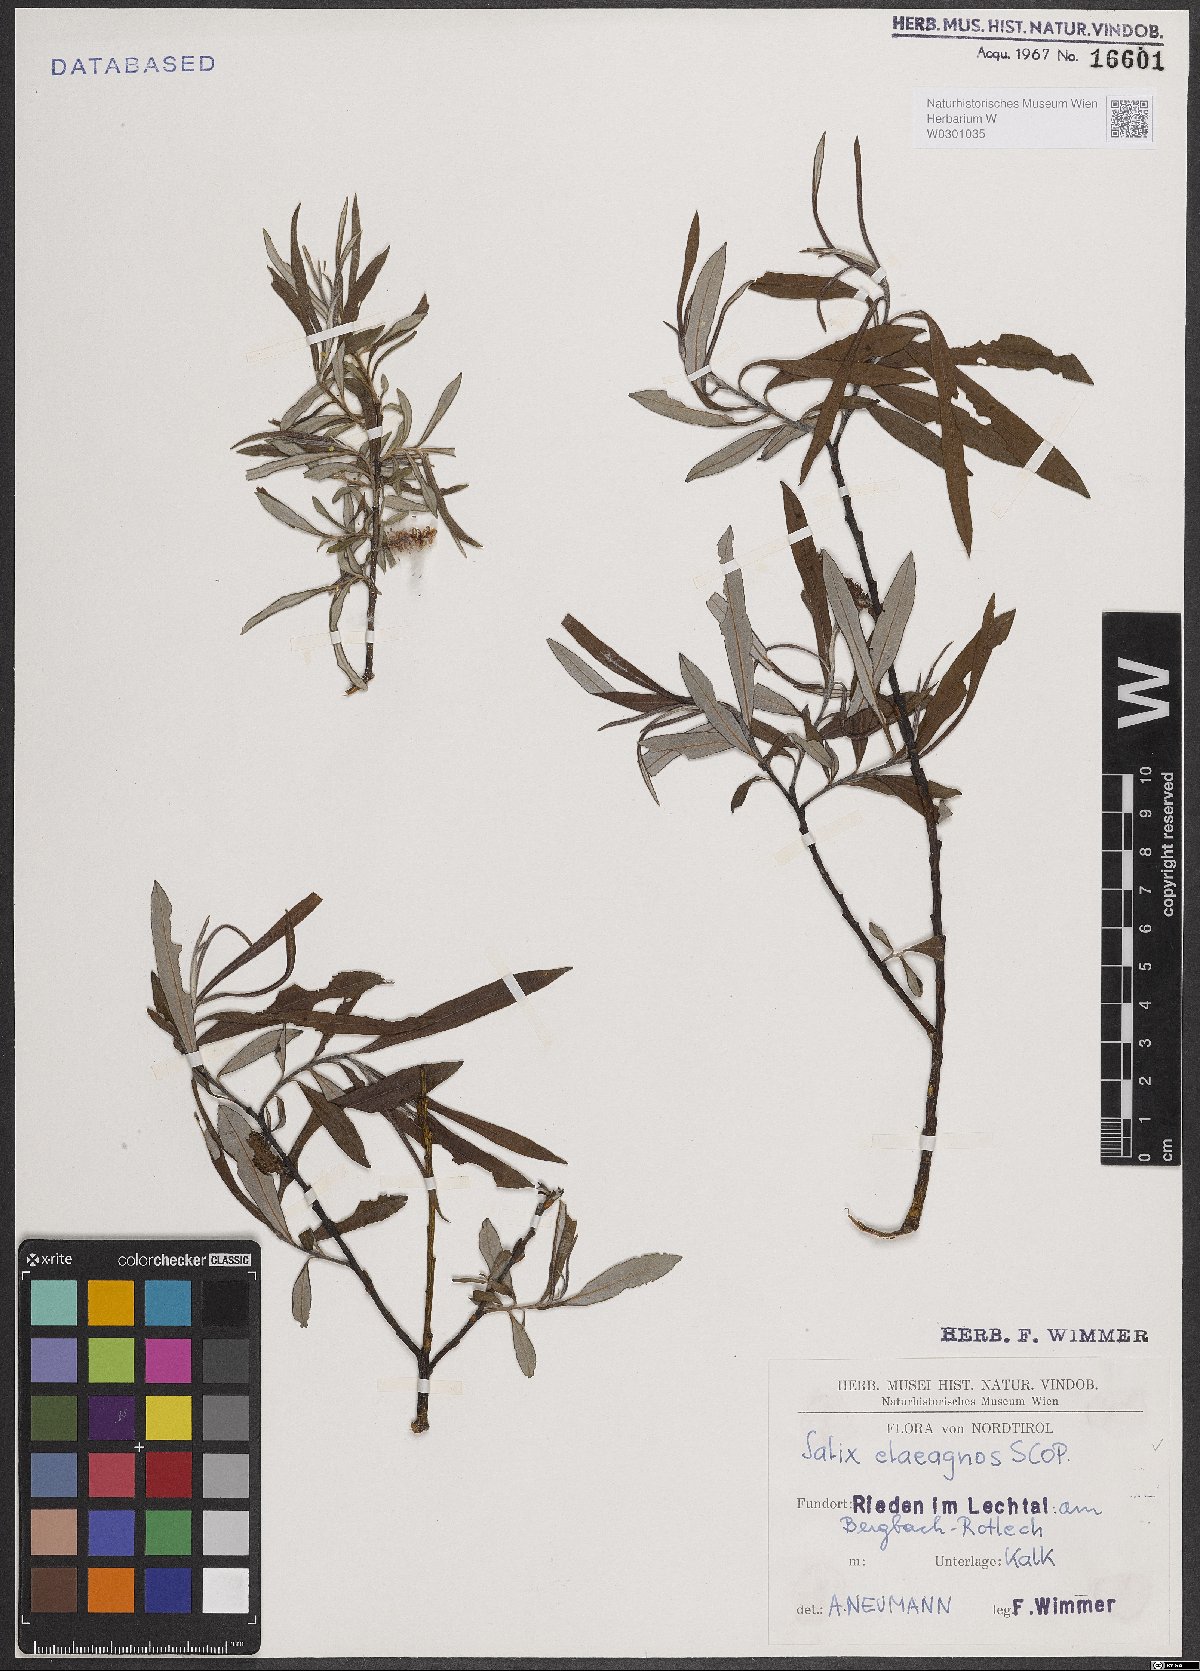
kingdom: Plantae
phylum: Tracheophyta
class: Magnoliopsida
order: Malpighiales
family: Salicaceae
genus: Salix
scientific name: Salix eleagnos
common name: Elaeagnus willow
